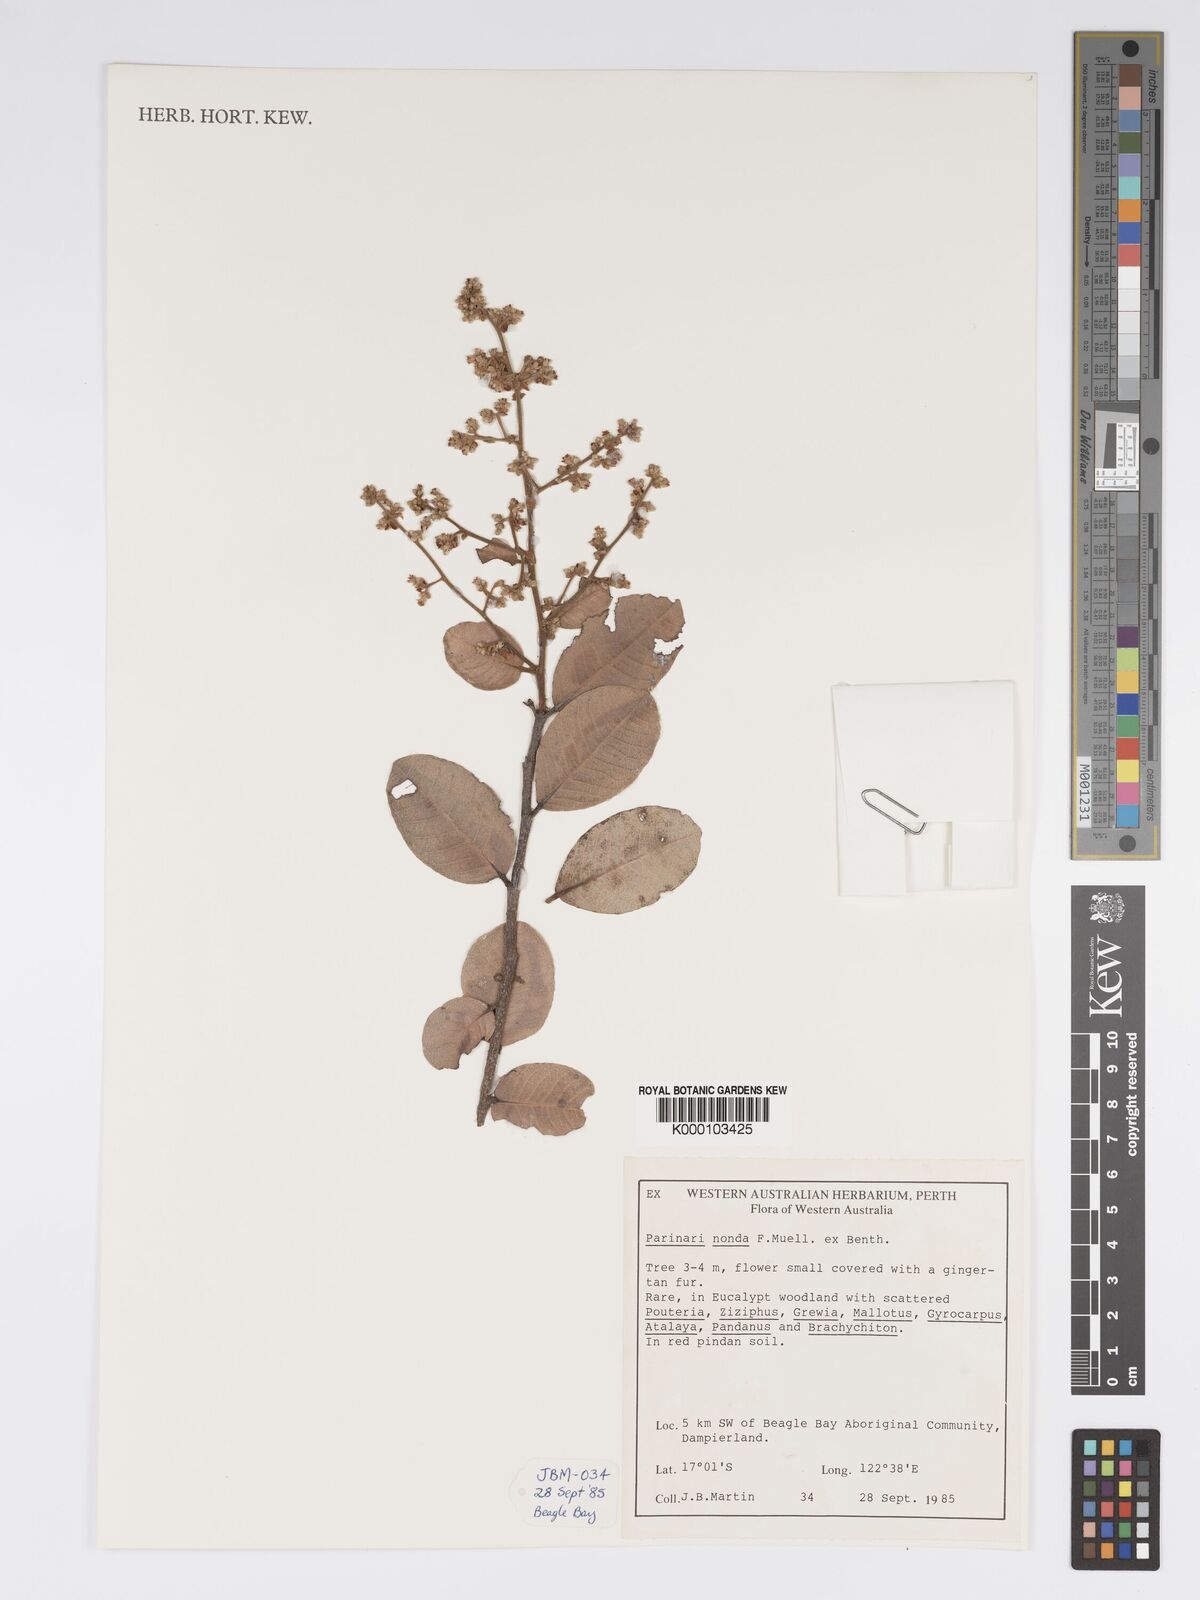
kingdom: Plantae
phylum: Tracheophyta
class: Magnoliopsida
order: Malpighiales
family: Chrysobalanaceae
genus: Parinari
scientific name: Parinari nonda
